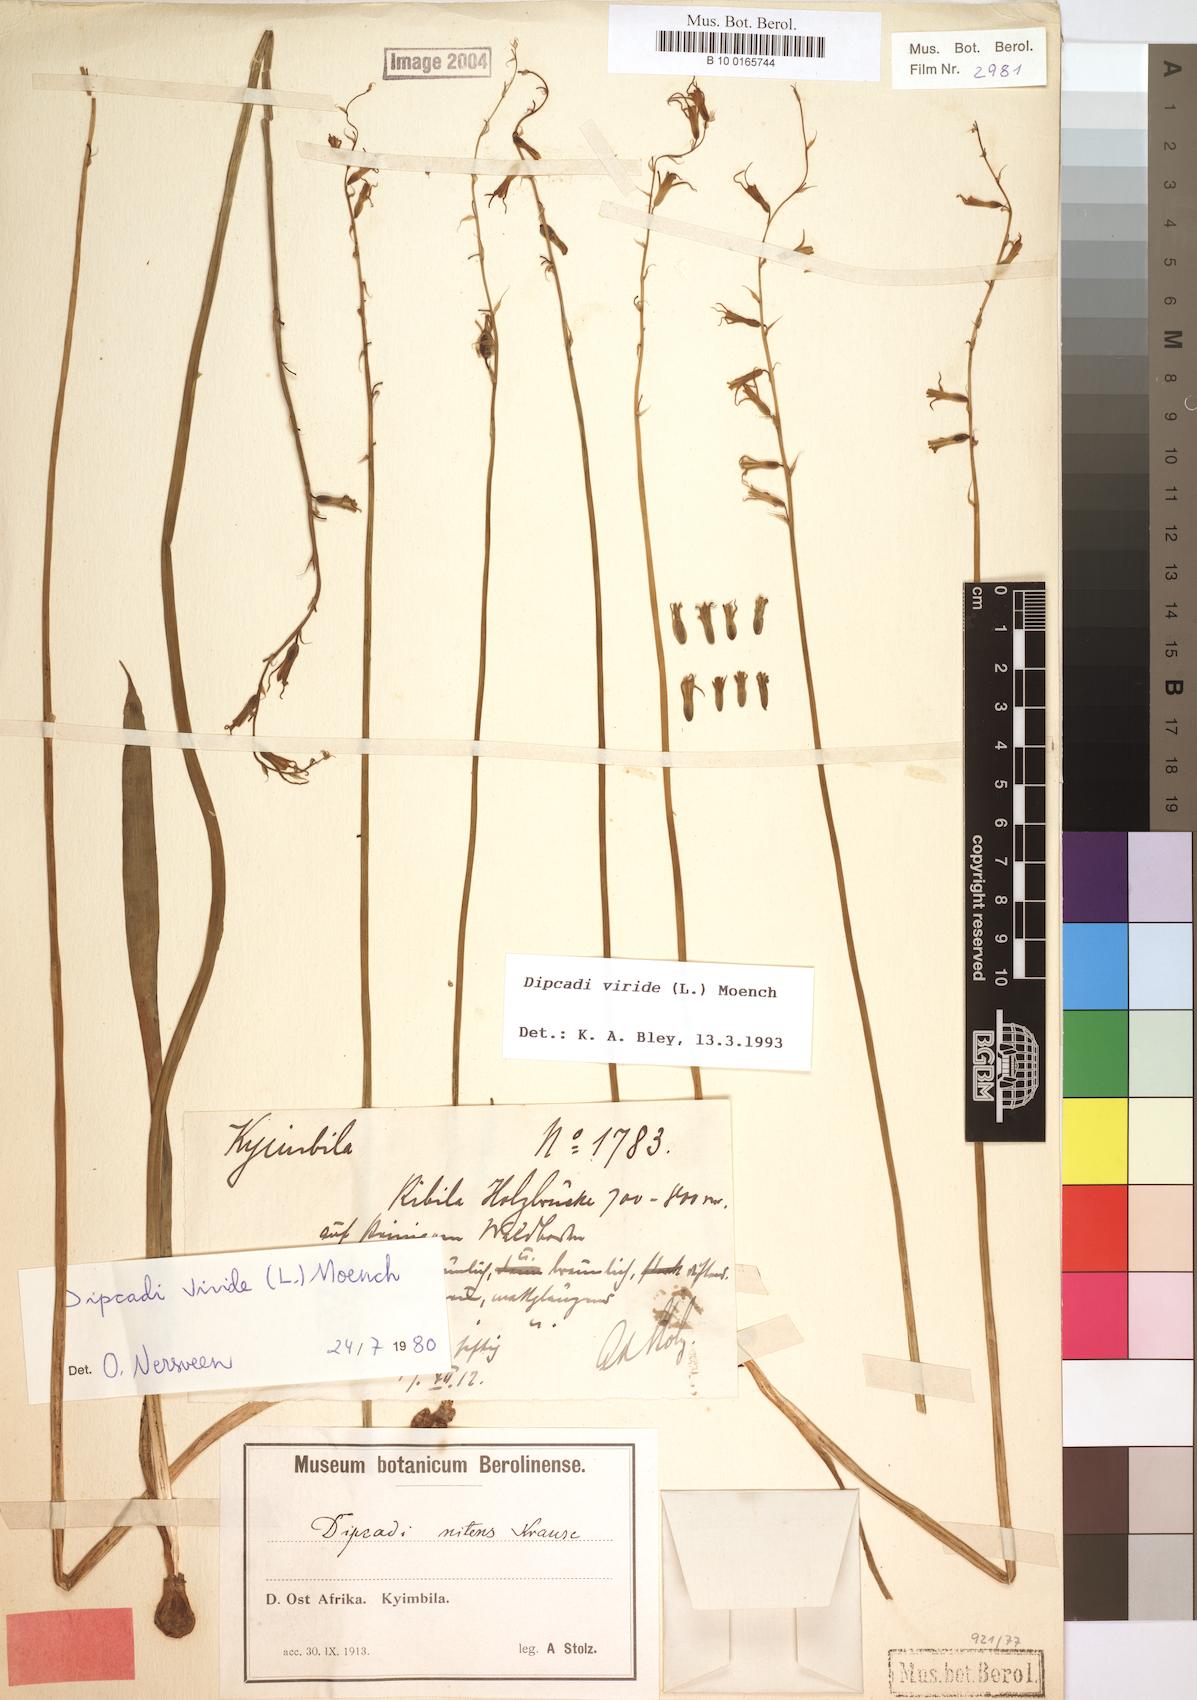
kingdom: Plantae
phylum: Tracheophyta
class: Liliopsida
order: Asparagales
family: Asparagaceae
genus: Dipcadi
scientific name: Dipcadi viride
